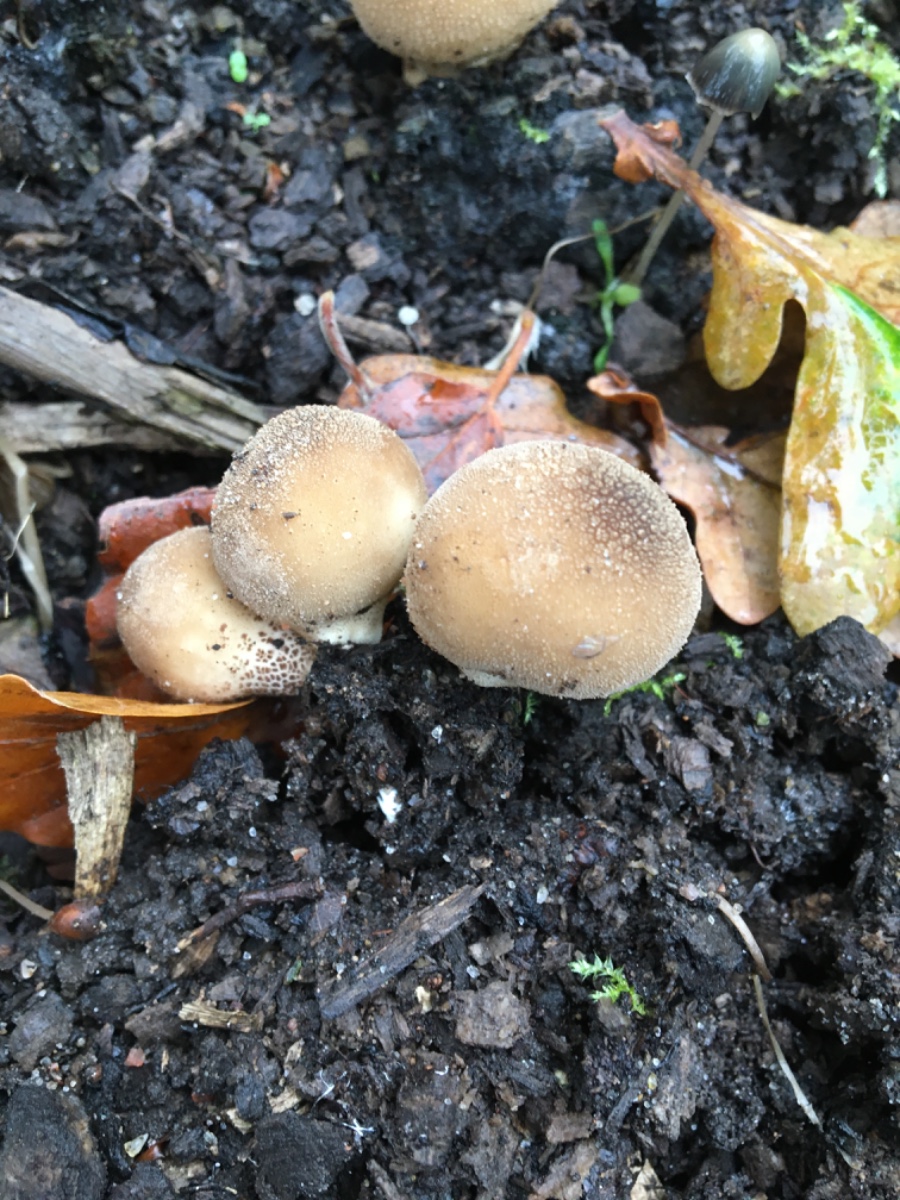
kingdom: Fungi
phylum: Basidiomycota
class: Agaricomycetes
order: Agaricales
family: Lycoperdaceae
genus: Apioperdon
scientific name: Apioperdon pyriforme
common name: pære-støvbold
